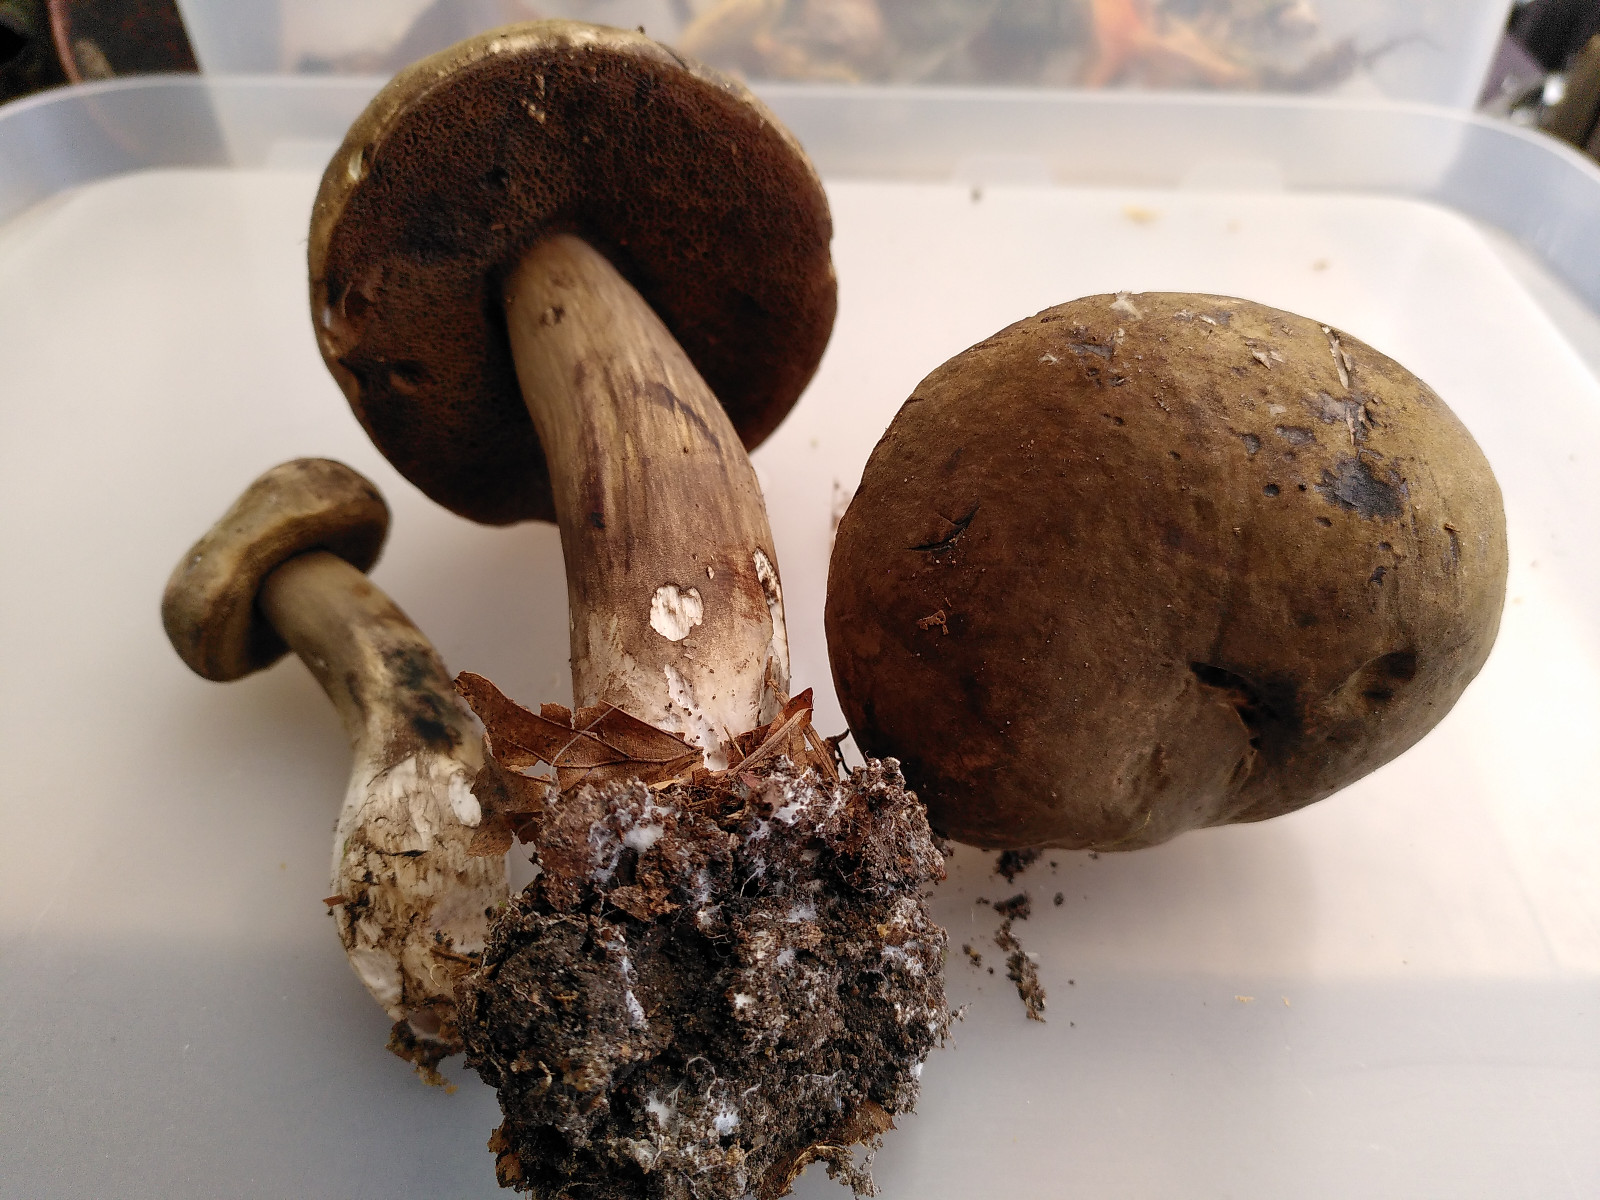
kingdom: Fungi
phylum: Basidiomycota
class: Agaricomycetes
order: Boletales
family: Boletaceae
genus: Porphyrellus
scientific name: Porphyrellus porphyrosporus
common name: sodrørhat
